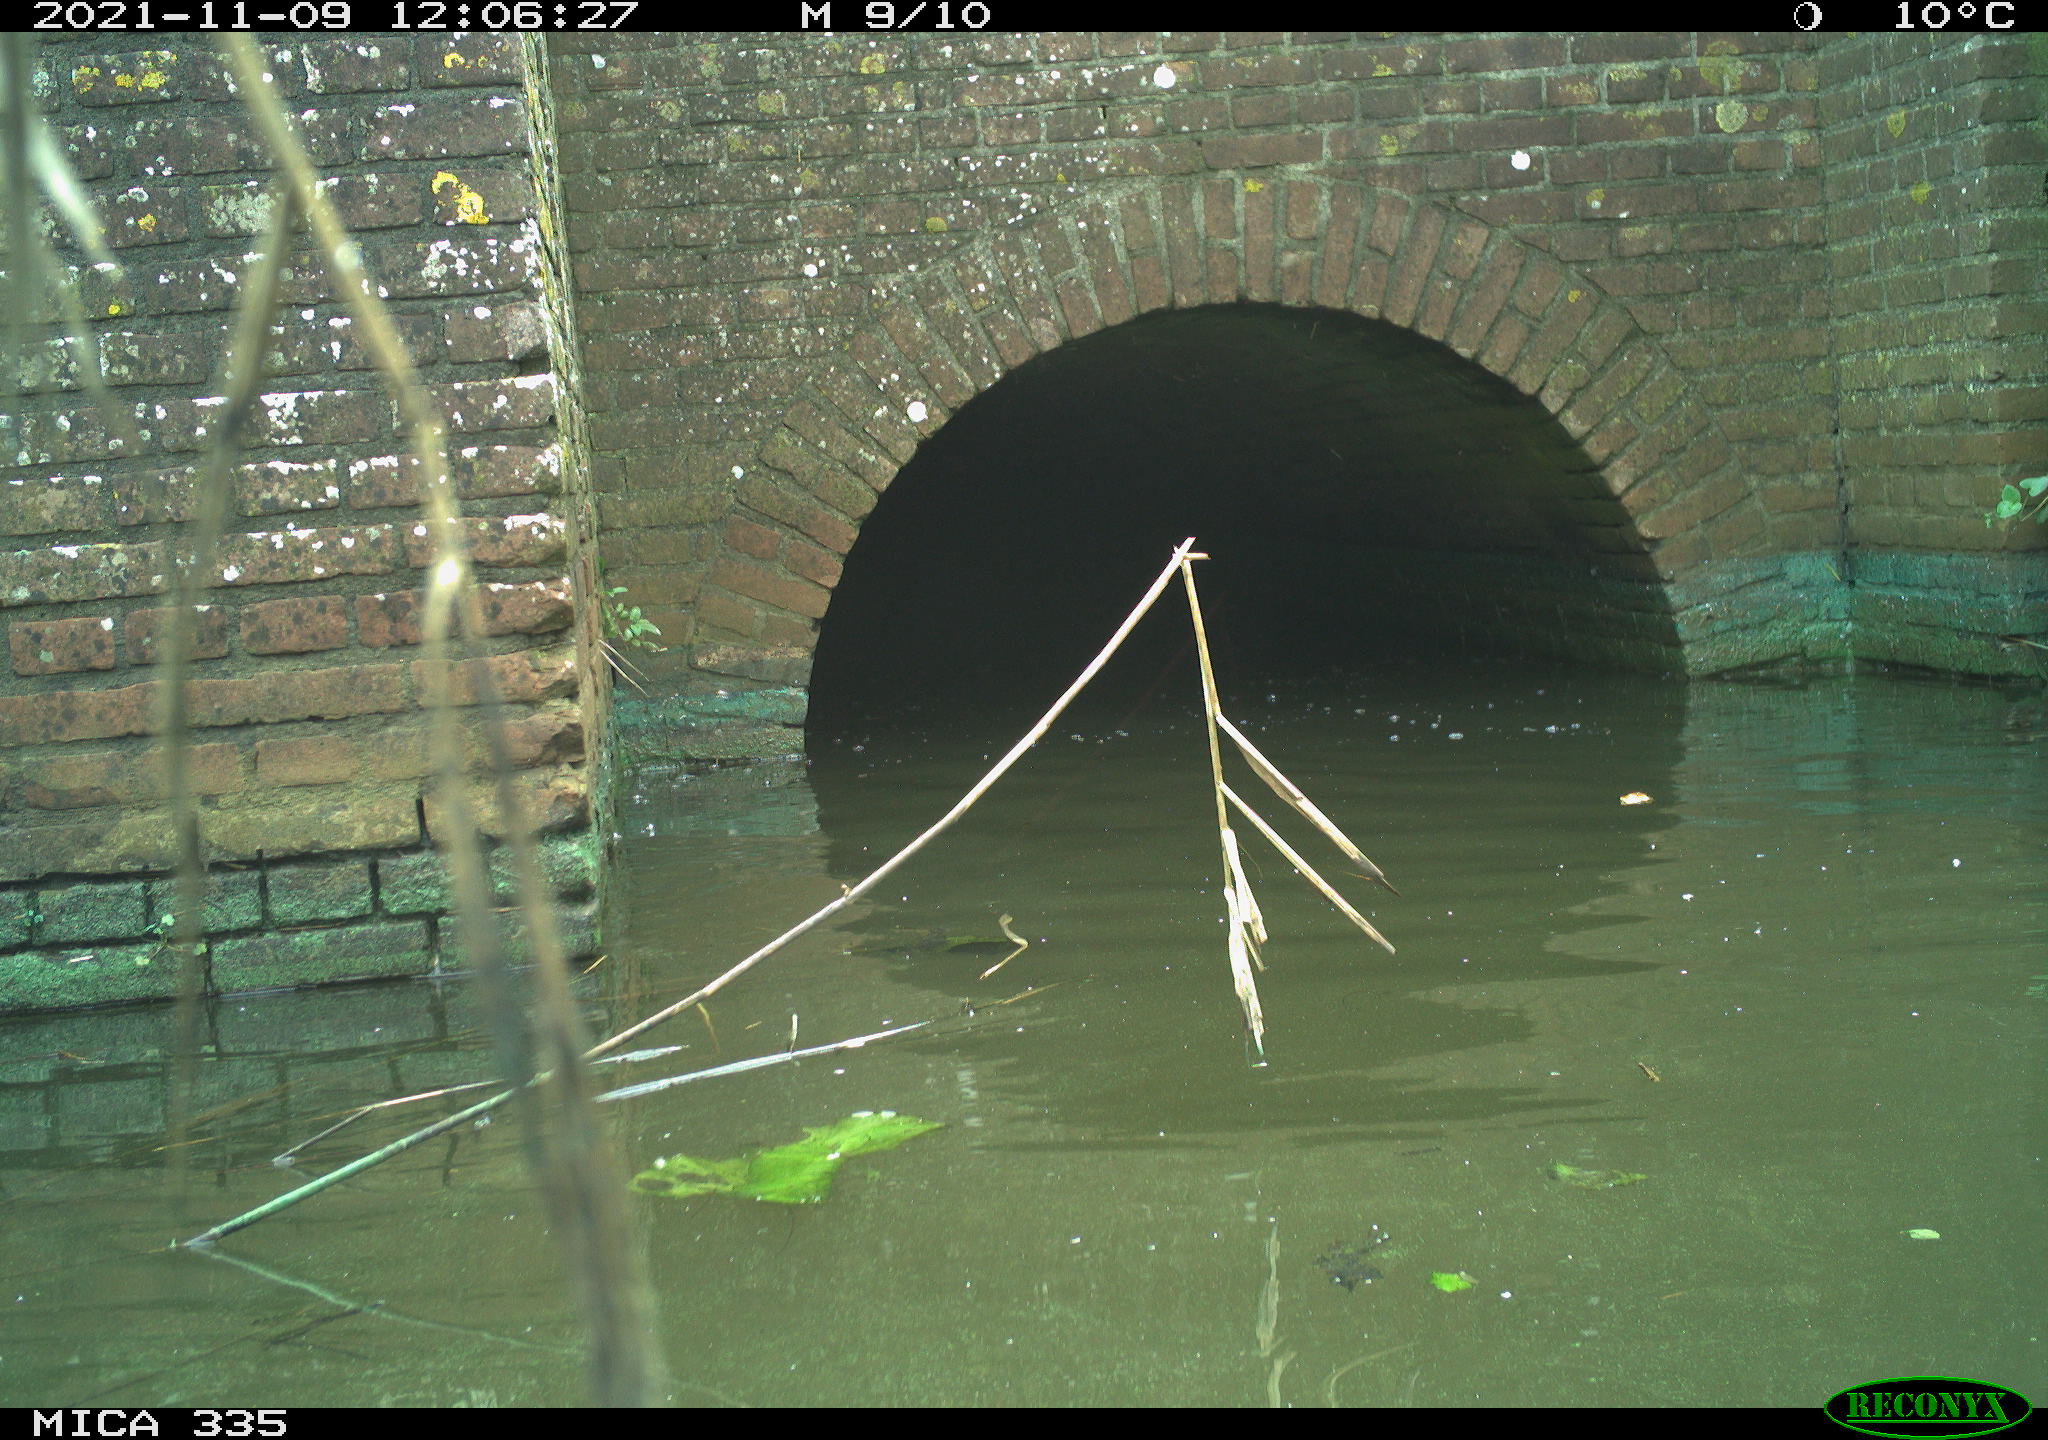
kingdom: Animalia
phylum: Chordata
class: Aves
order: Anseriformes
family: Anatidae
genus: Anas
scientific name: Anas platyrhynchos
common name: Mallard
